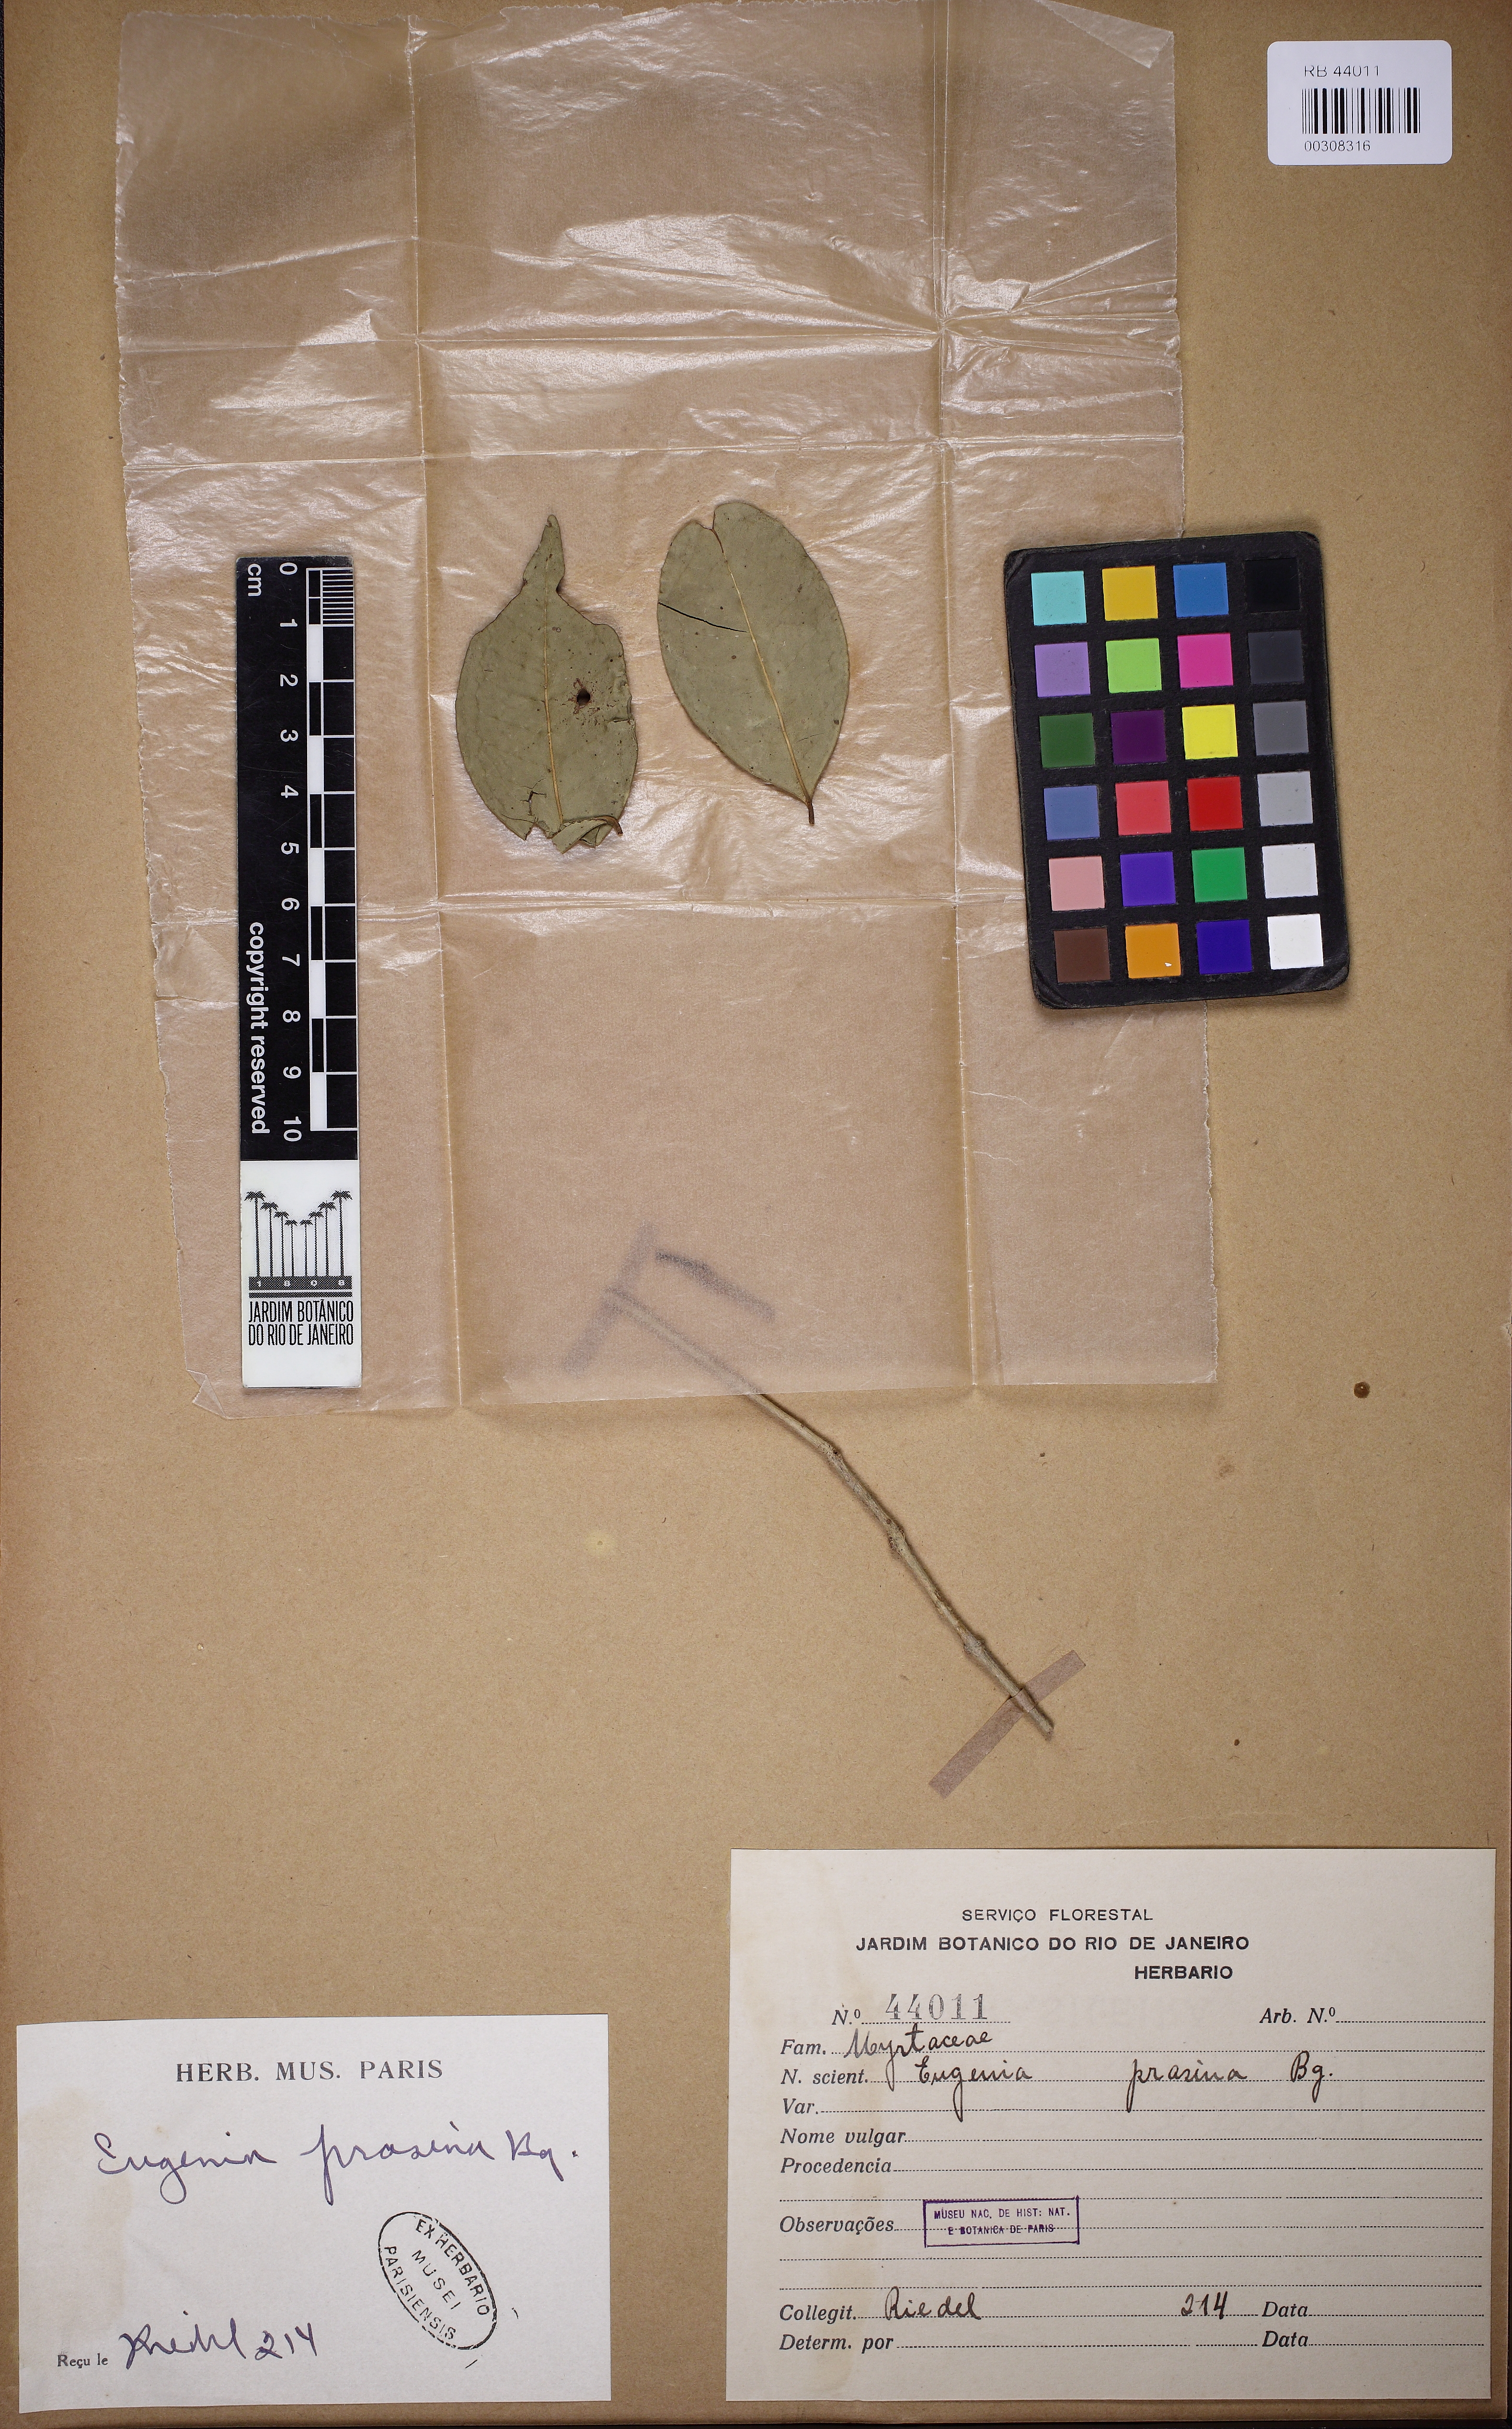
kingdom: Plantae
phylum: Tracheophyta
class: Magnoliopsida
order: Myrtales
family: Myrtaceae
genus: Eugenia
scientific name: Eugenia prasina
